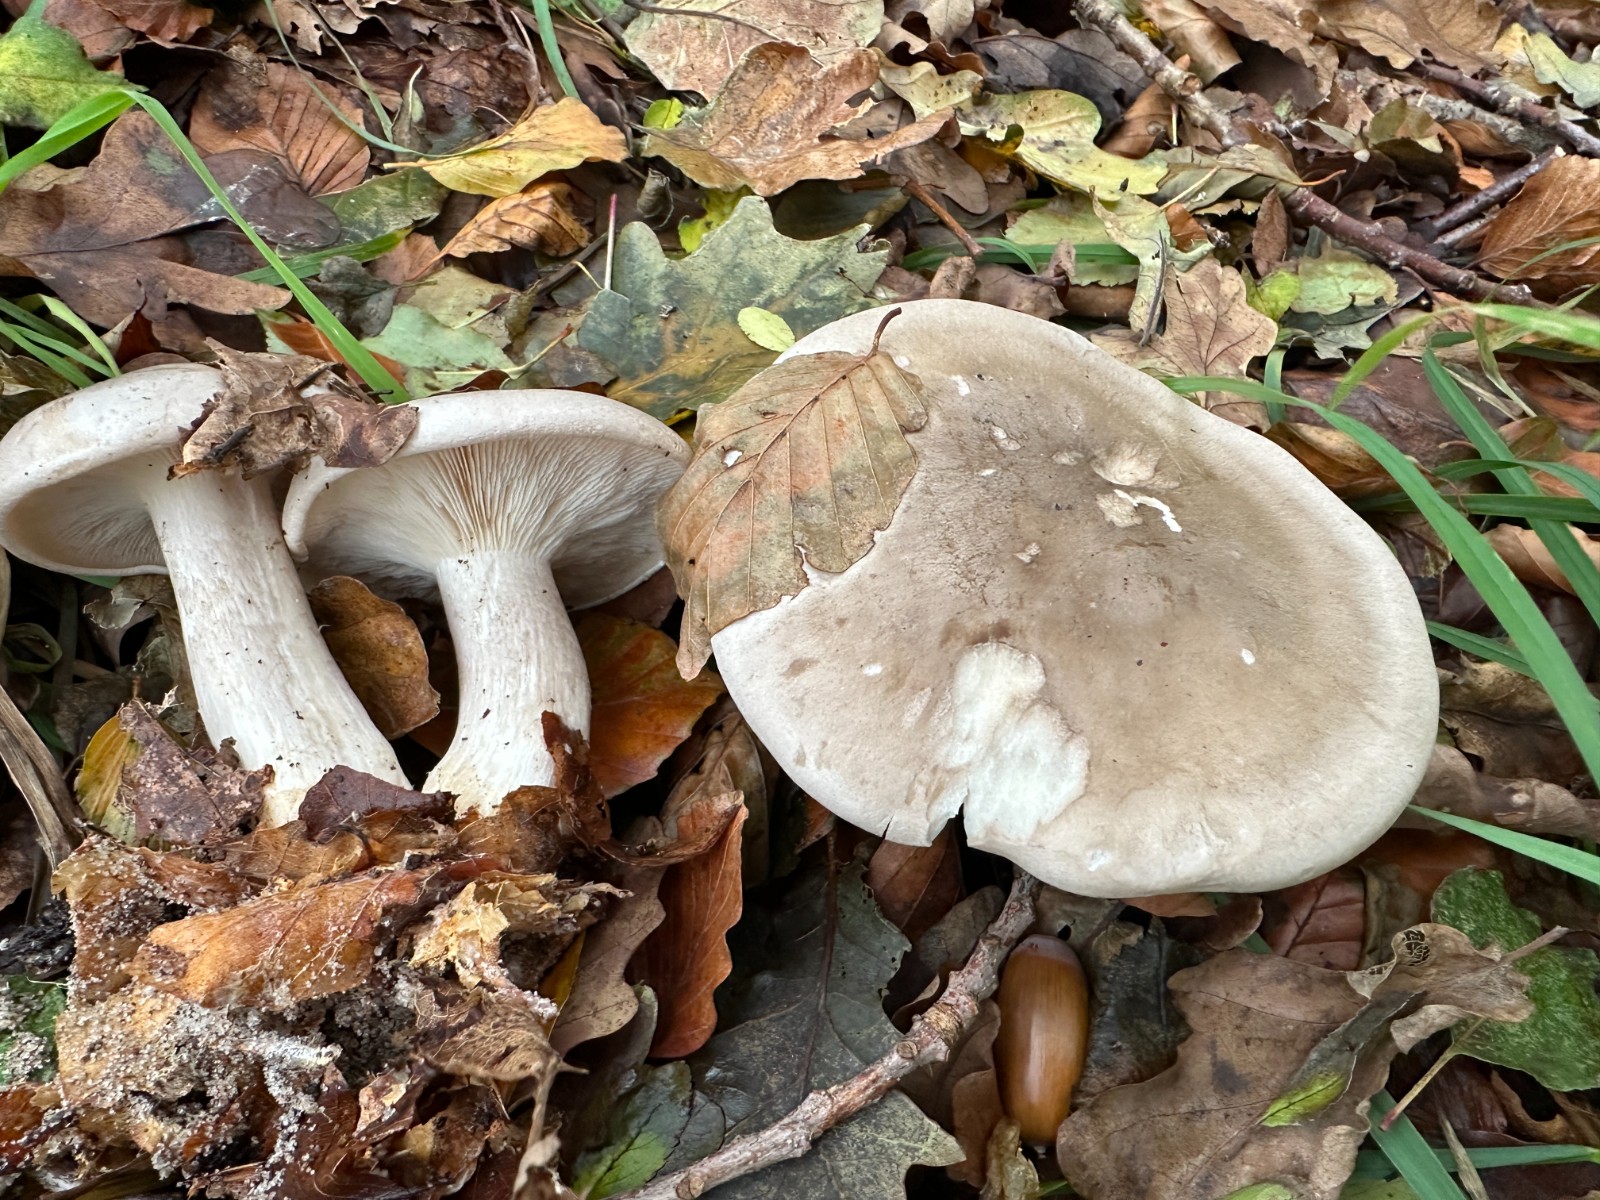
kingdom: Fungi
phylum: Basidiomycota
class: Agaricomycetes
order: Agaricales
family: Tricholomataceae
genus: Clitocybe
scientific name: Clitocybe nebularis
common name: tåge-tragthat
